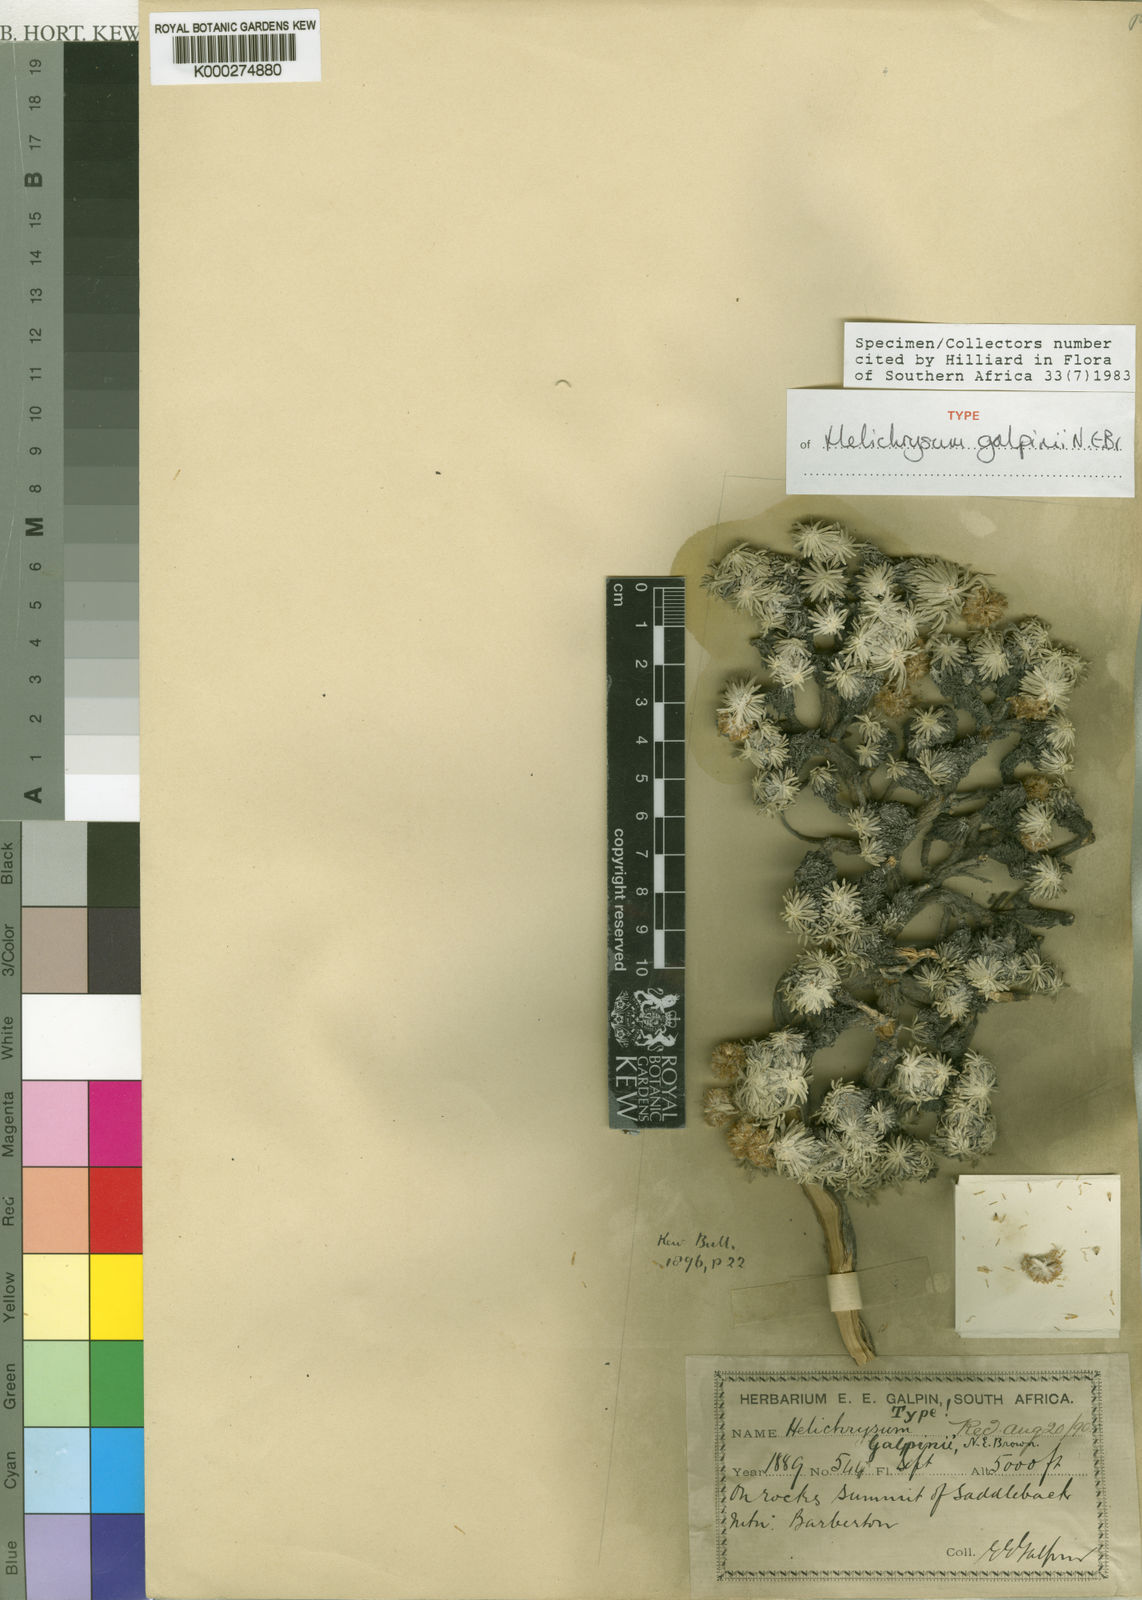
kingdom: Plantae
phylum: Tracheophyta
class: Magnoliopsida
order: Asterales
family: Asteraceae
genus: Helichrysum
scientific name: Helichrysum galpinii
